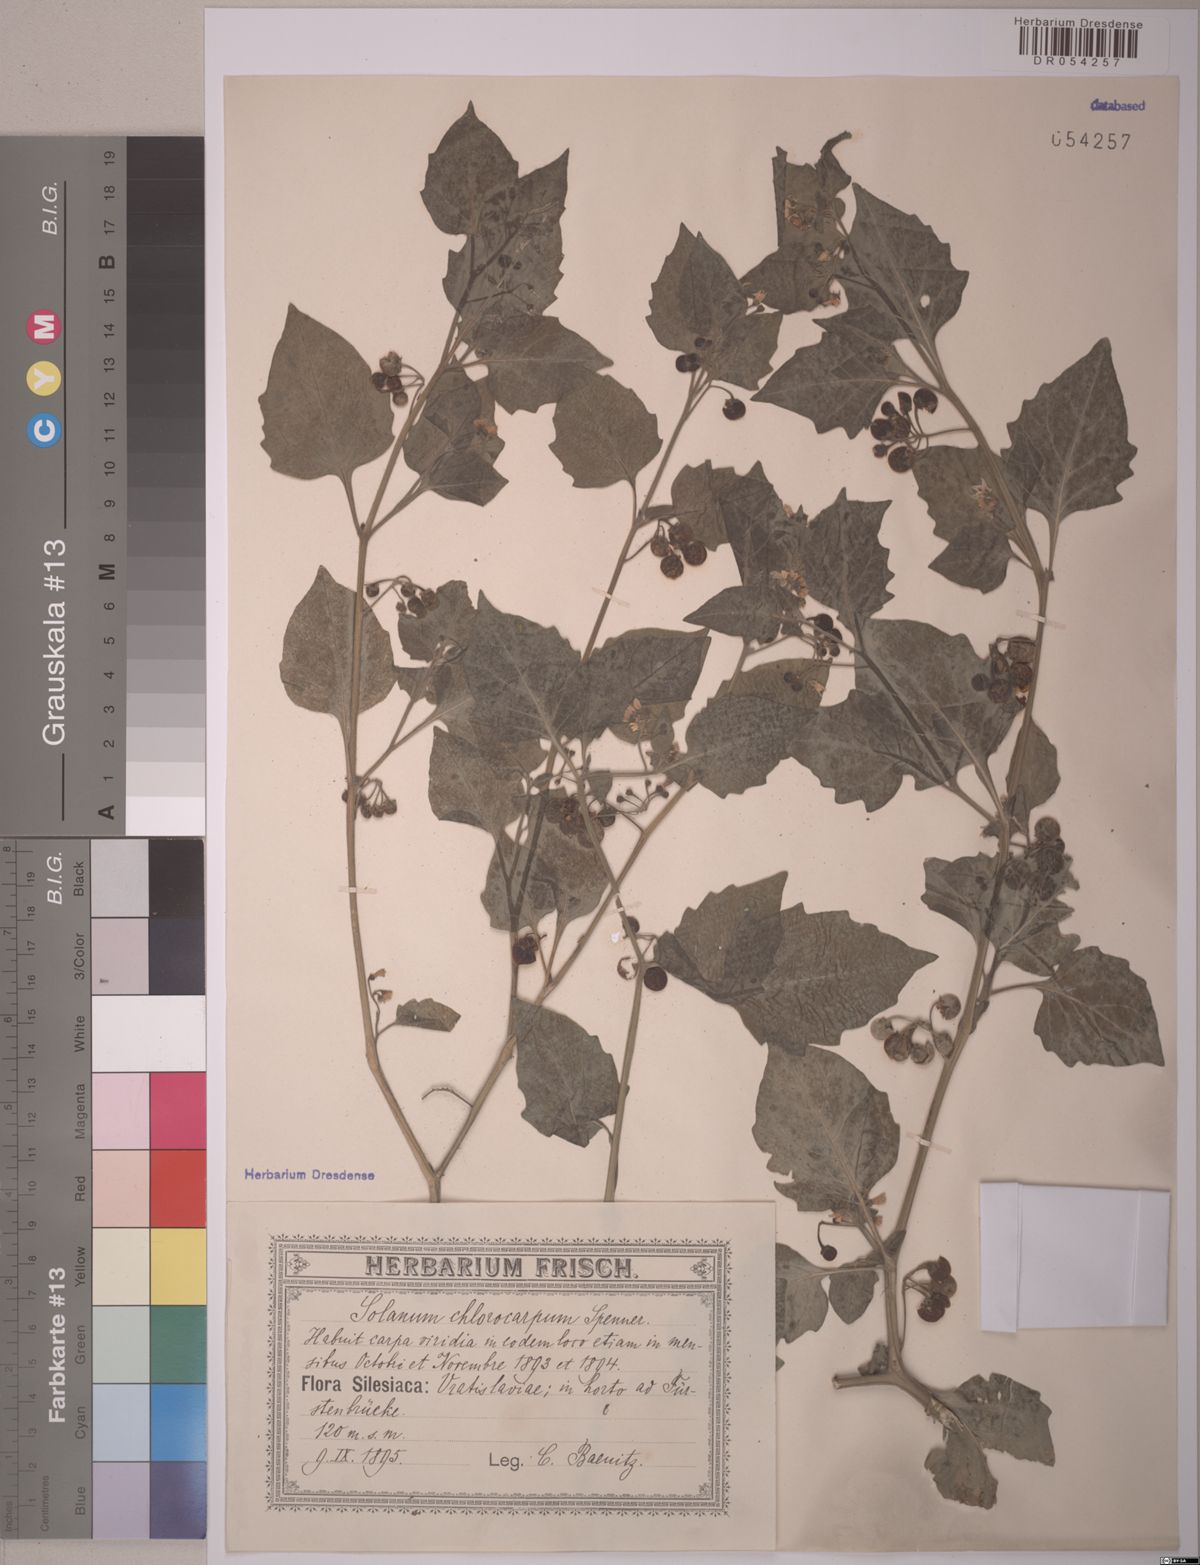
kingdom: Plantae
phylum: Tracheophyta
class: Magnoliopsida
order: Solanales
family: Solanaceae
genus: Solanum
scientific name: Solanum nigrum
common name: Black nightshade
